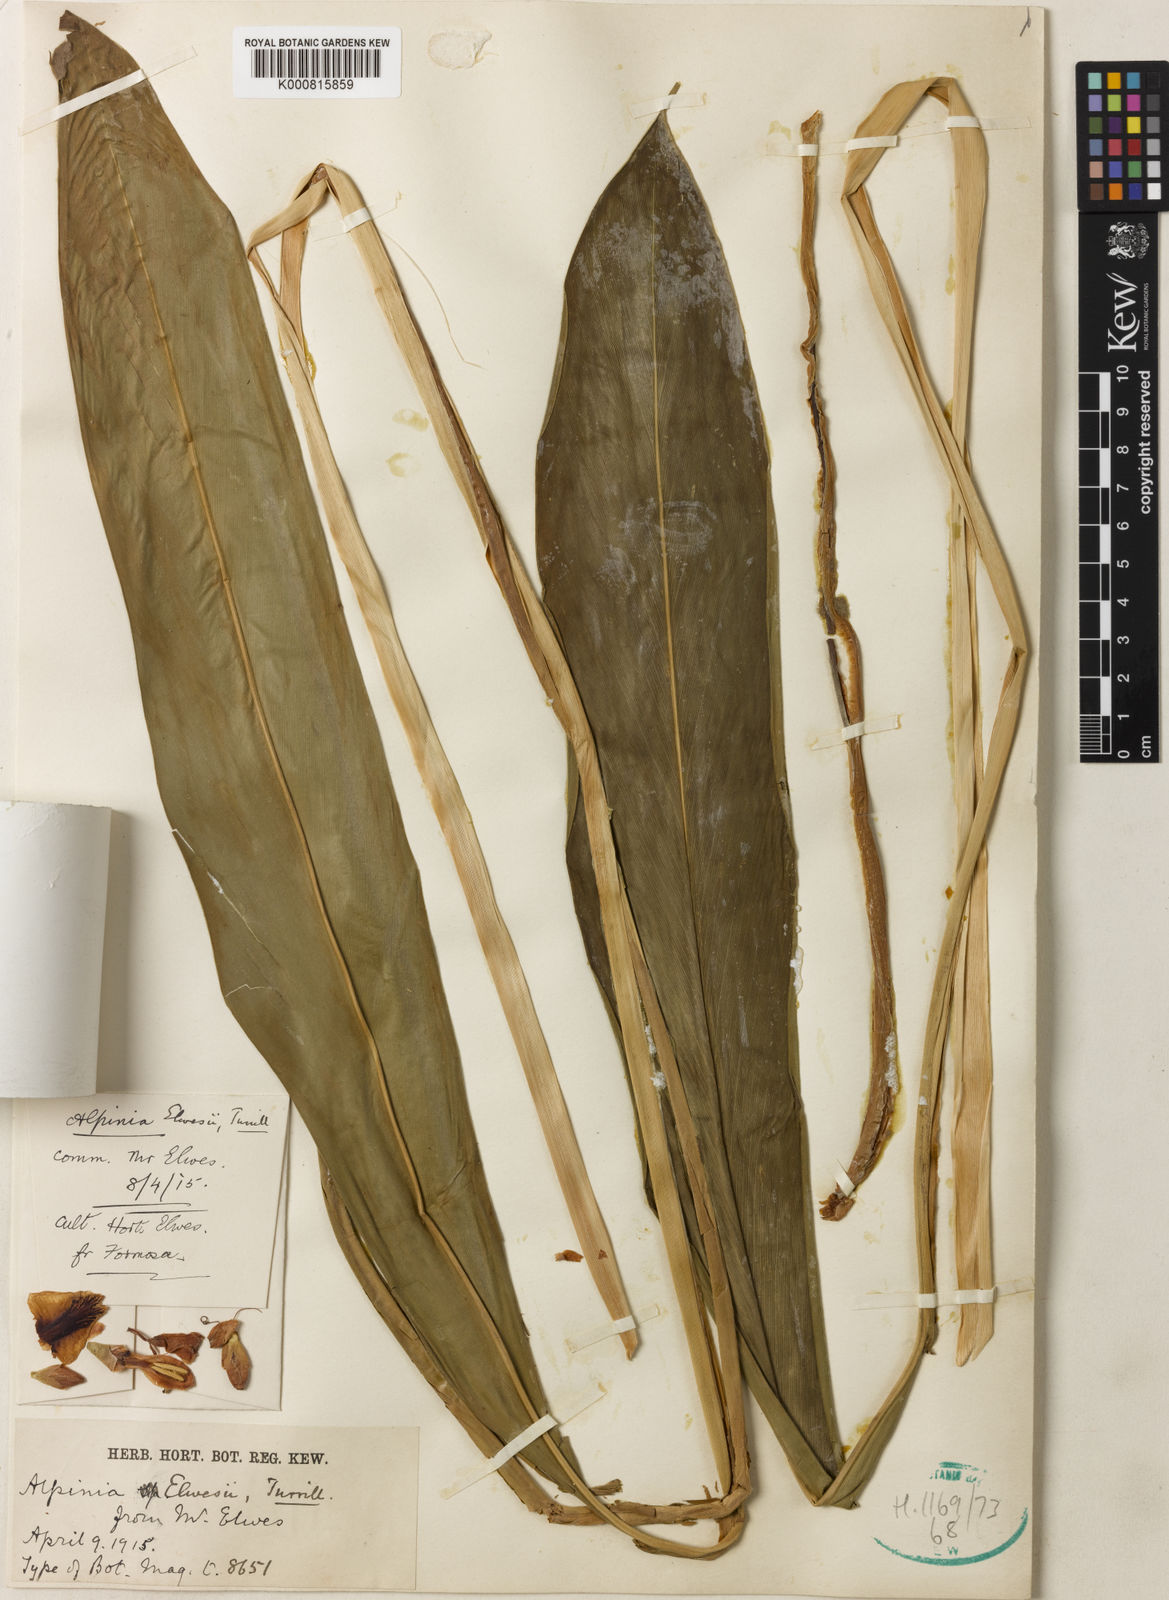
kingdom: Plantae
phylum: Tracheophyta
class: Liliopsida
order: Zingiberales
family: Zingiberaceae
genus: Alpinia
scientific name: Alpinia kawakamii
